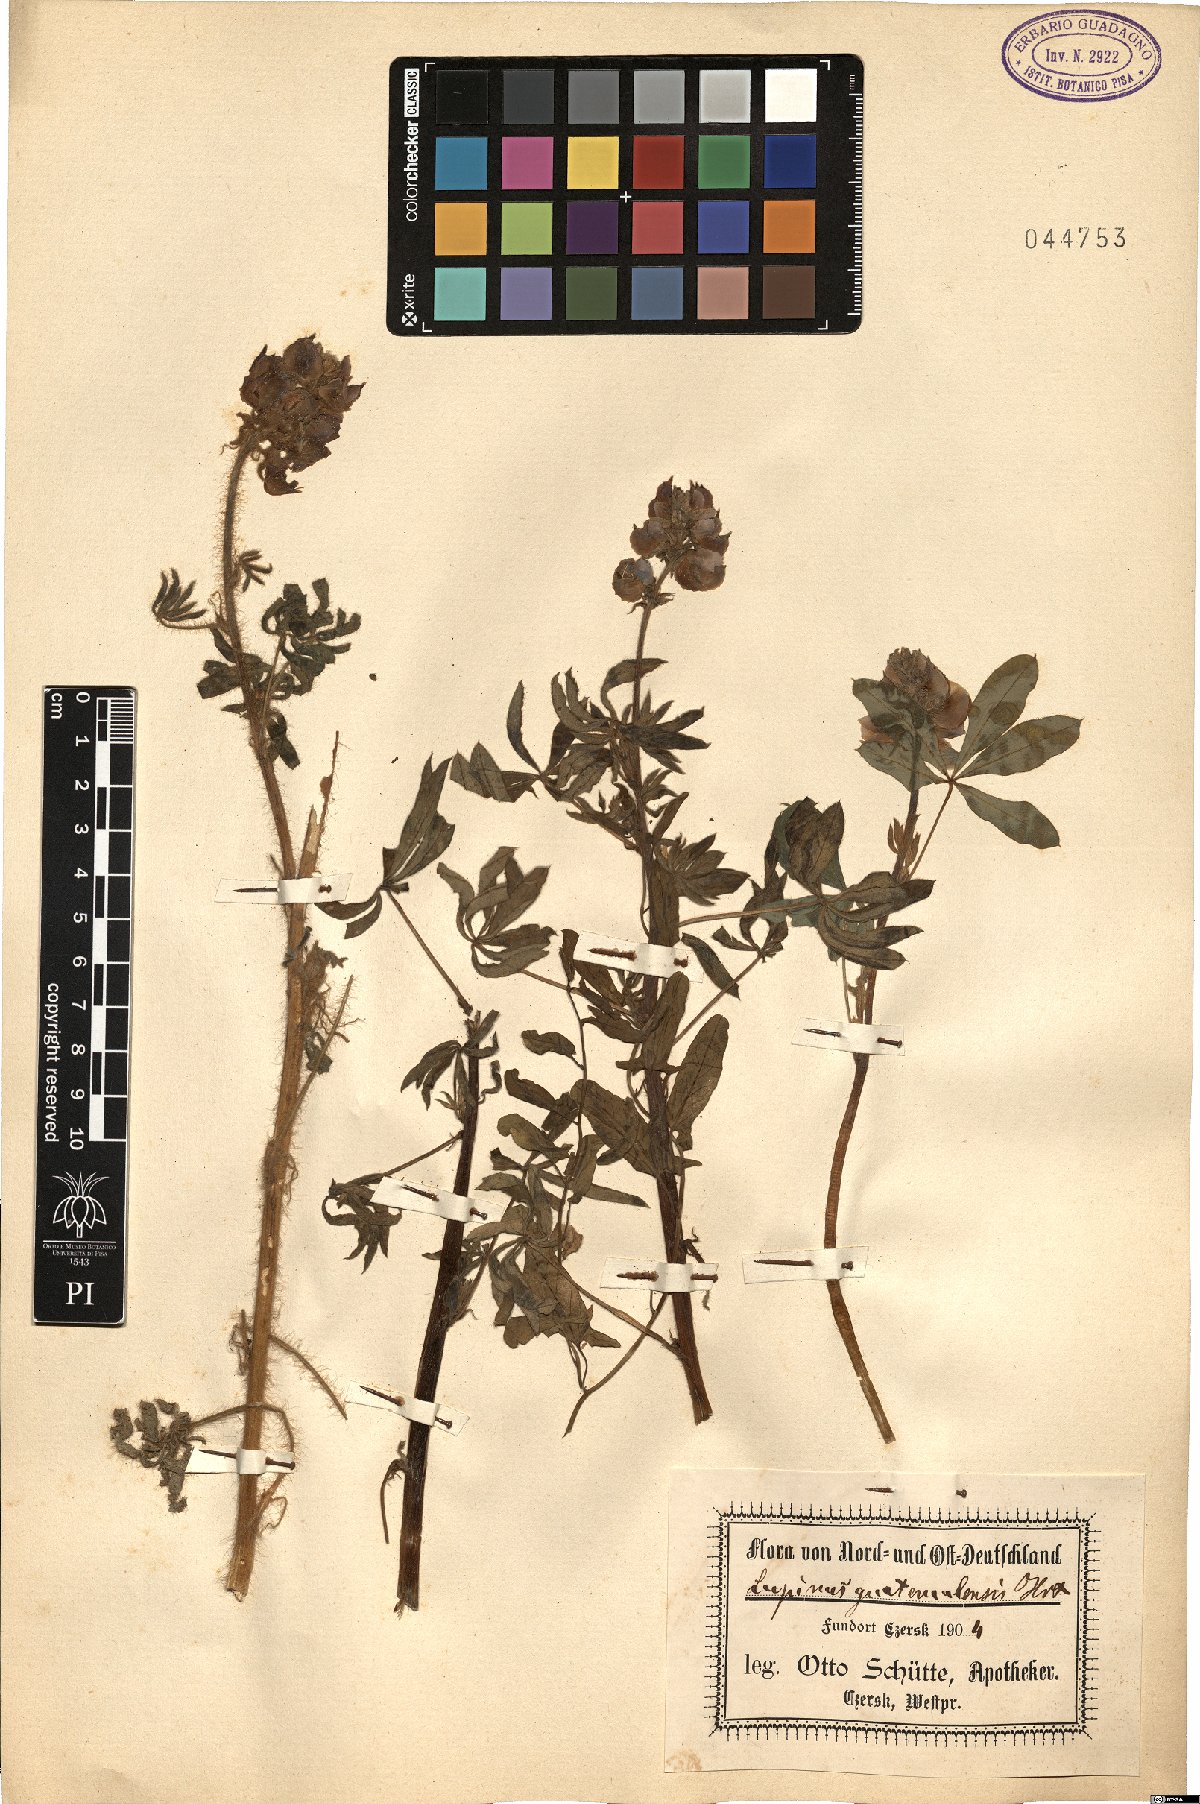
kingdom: Plantae
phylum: Tracheophyta
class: Magnoliopsida
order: Fabales
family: Fabaceae
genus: Cyamopsis
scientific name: Cyamopsis tetragonoloba
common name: Cluster-bean
